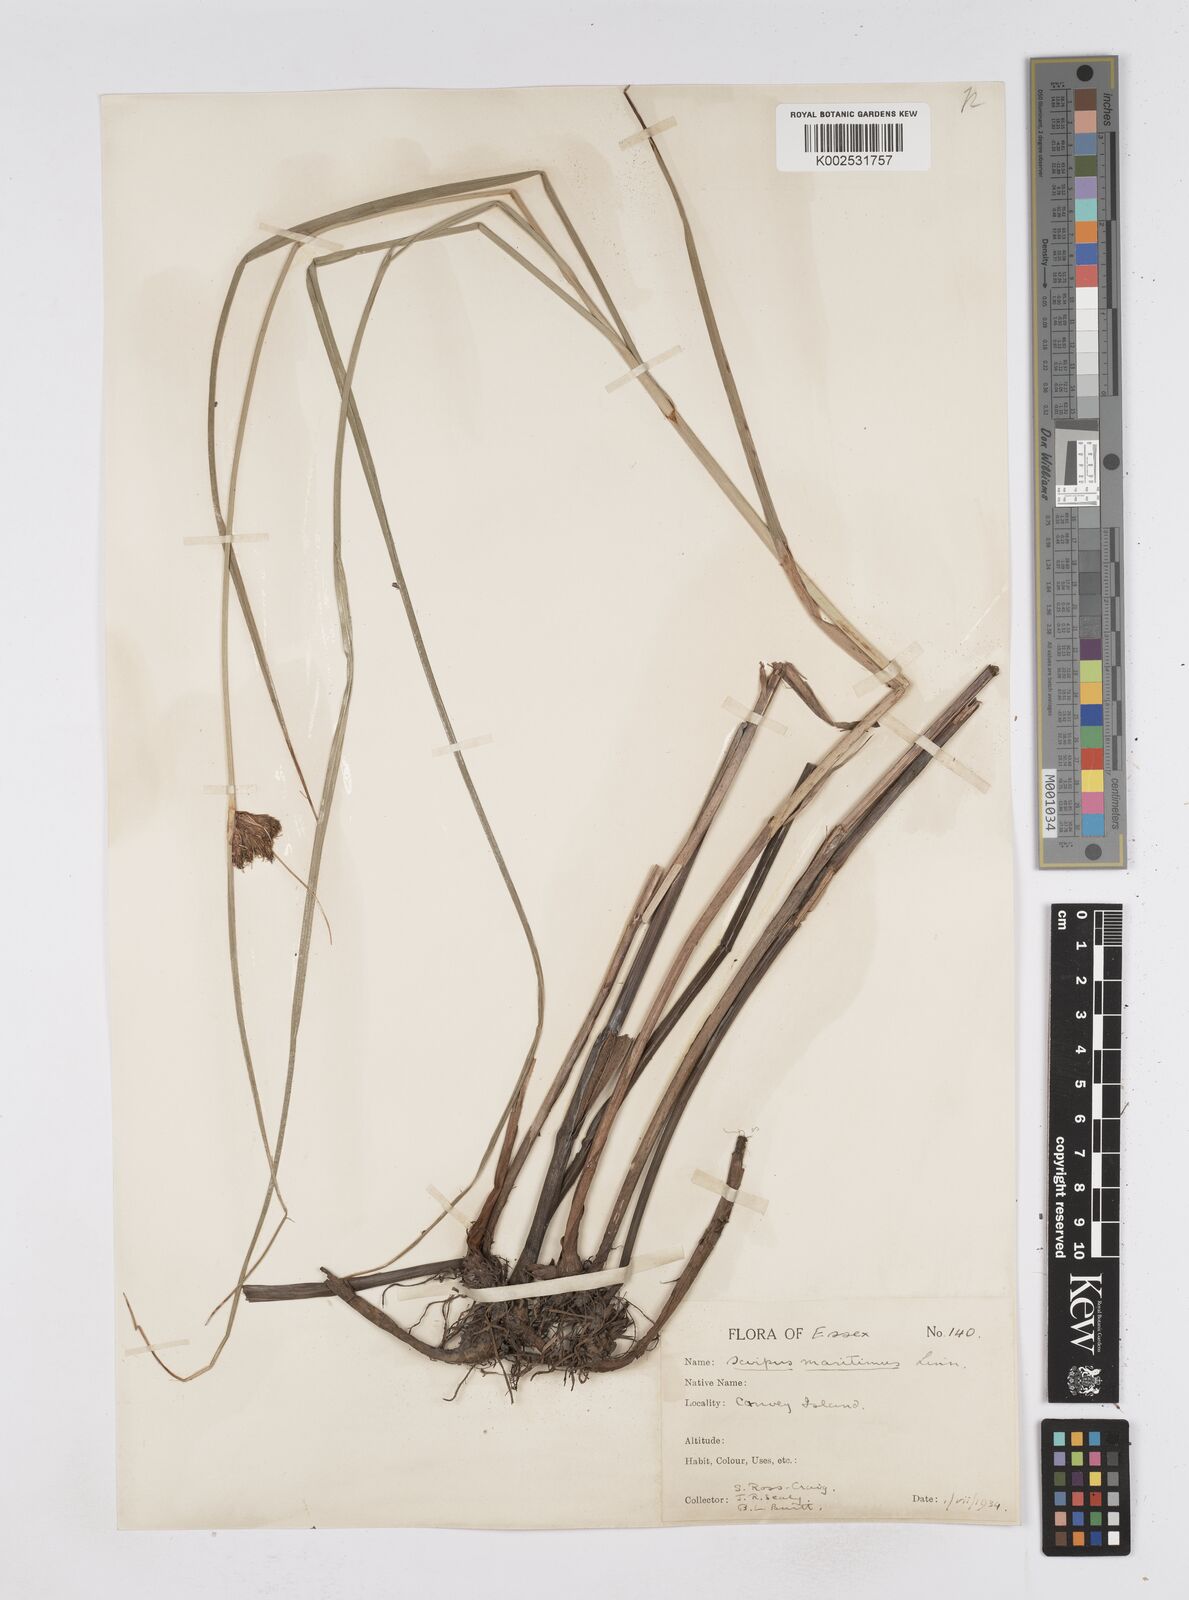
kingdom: Plantae
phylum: Tracheophyta
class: Liliopsida
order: Poales
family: Cyperaceae
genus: Bolboschoenus
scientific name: Bolboschoenus maritimus
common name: Sea club-rush
